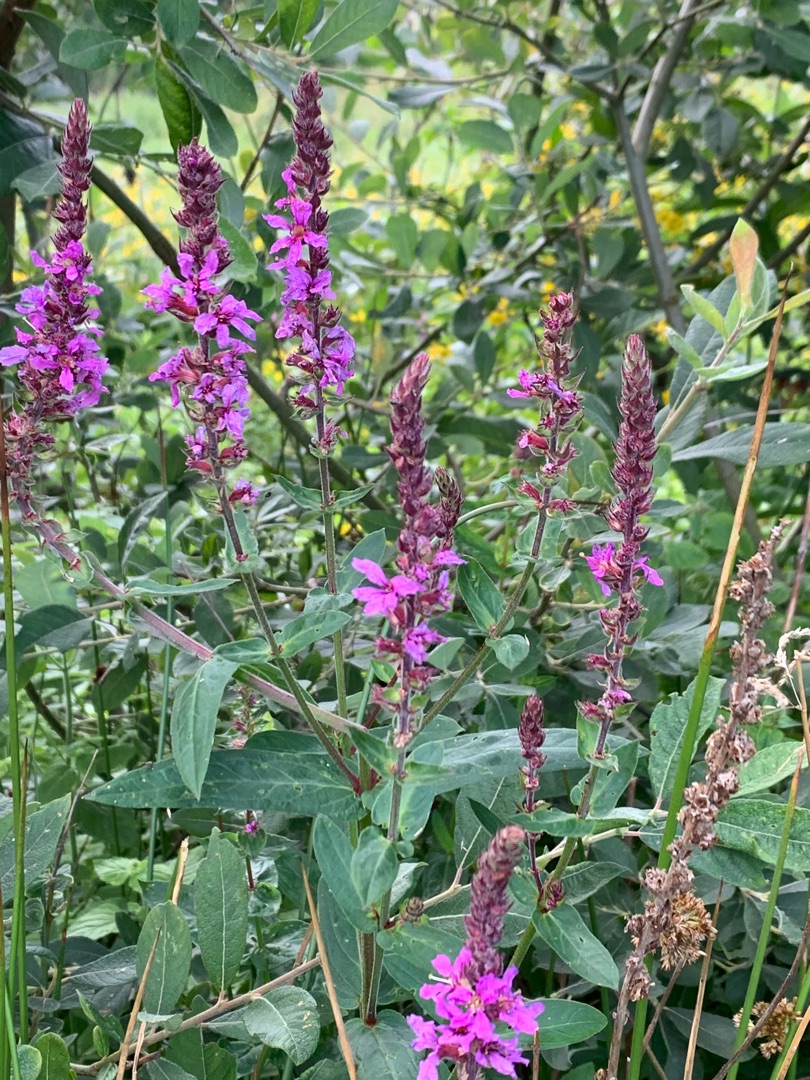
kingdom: Plantae
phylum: Tracheophyta
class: Magnoliopsida
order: Myrtales
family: Lythraceae
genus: Lythrum
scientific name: Lythrum salicaria
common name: Kattehale
